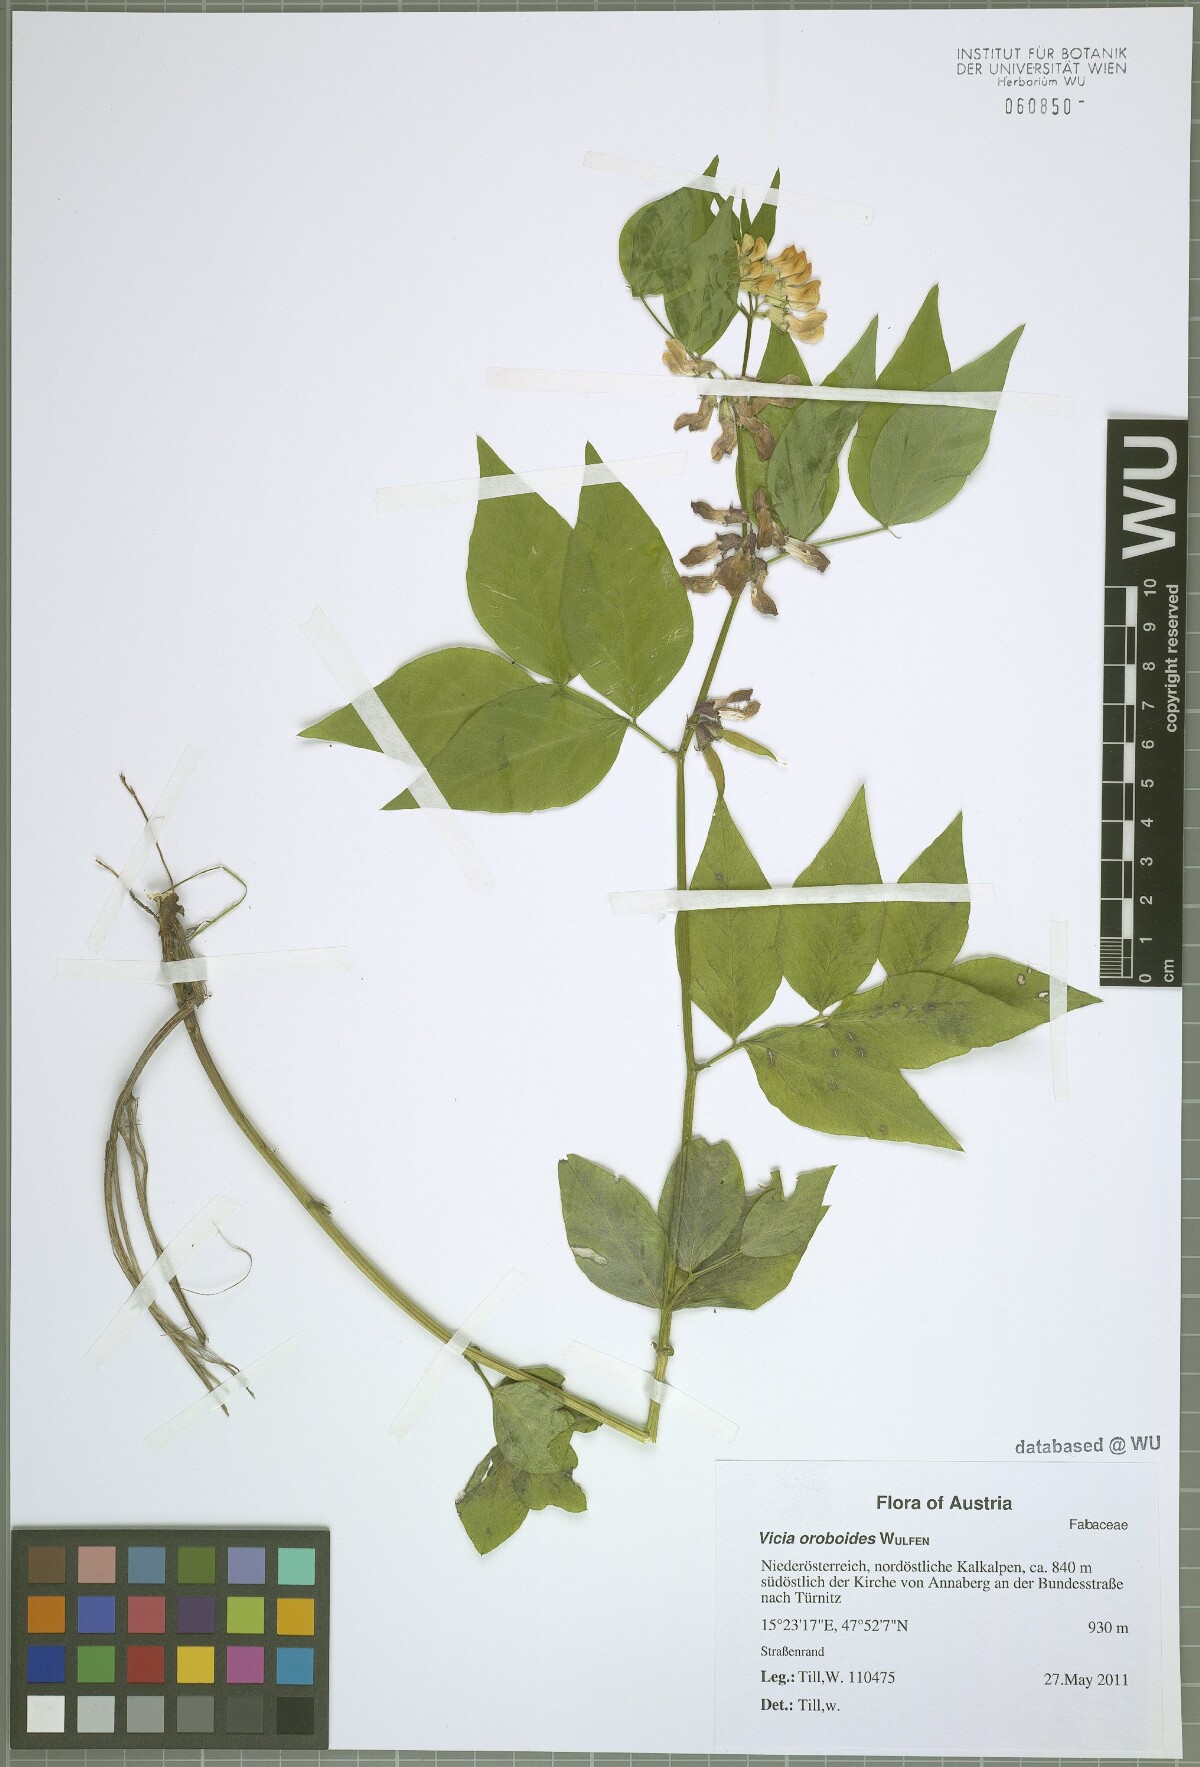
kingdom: Plantae
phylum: Tracheophyta
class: Magnoliopsida
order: Fabales
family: Fabaceae
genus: Vicia
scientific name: Vicia oroboides
